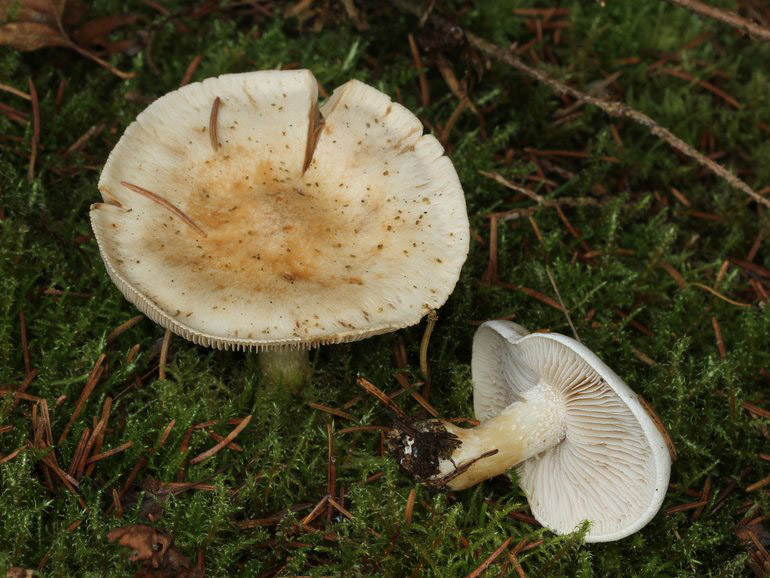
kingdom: Fungi
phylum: Basidiomycota
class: Agaricomycetes
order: Agaricales
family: Hymenogastraceae
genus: Hebeloma
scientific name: Hebeloma crustuliniforme
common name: almindelig tåreblad
